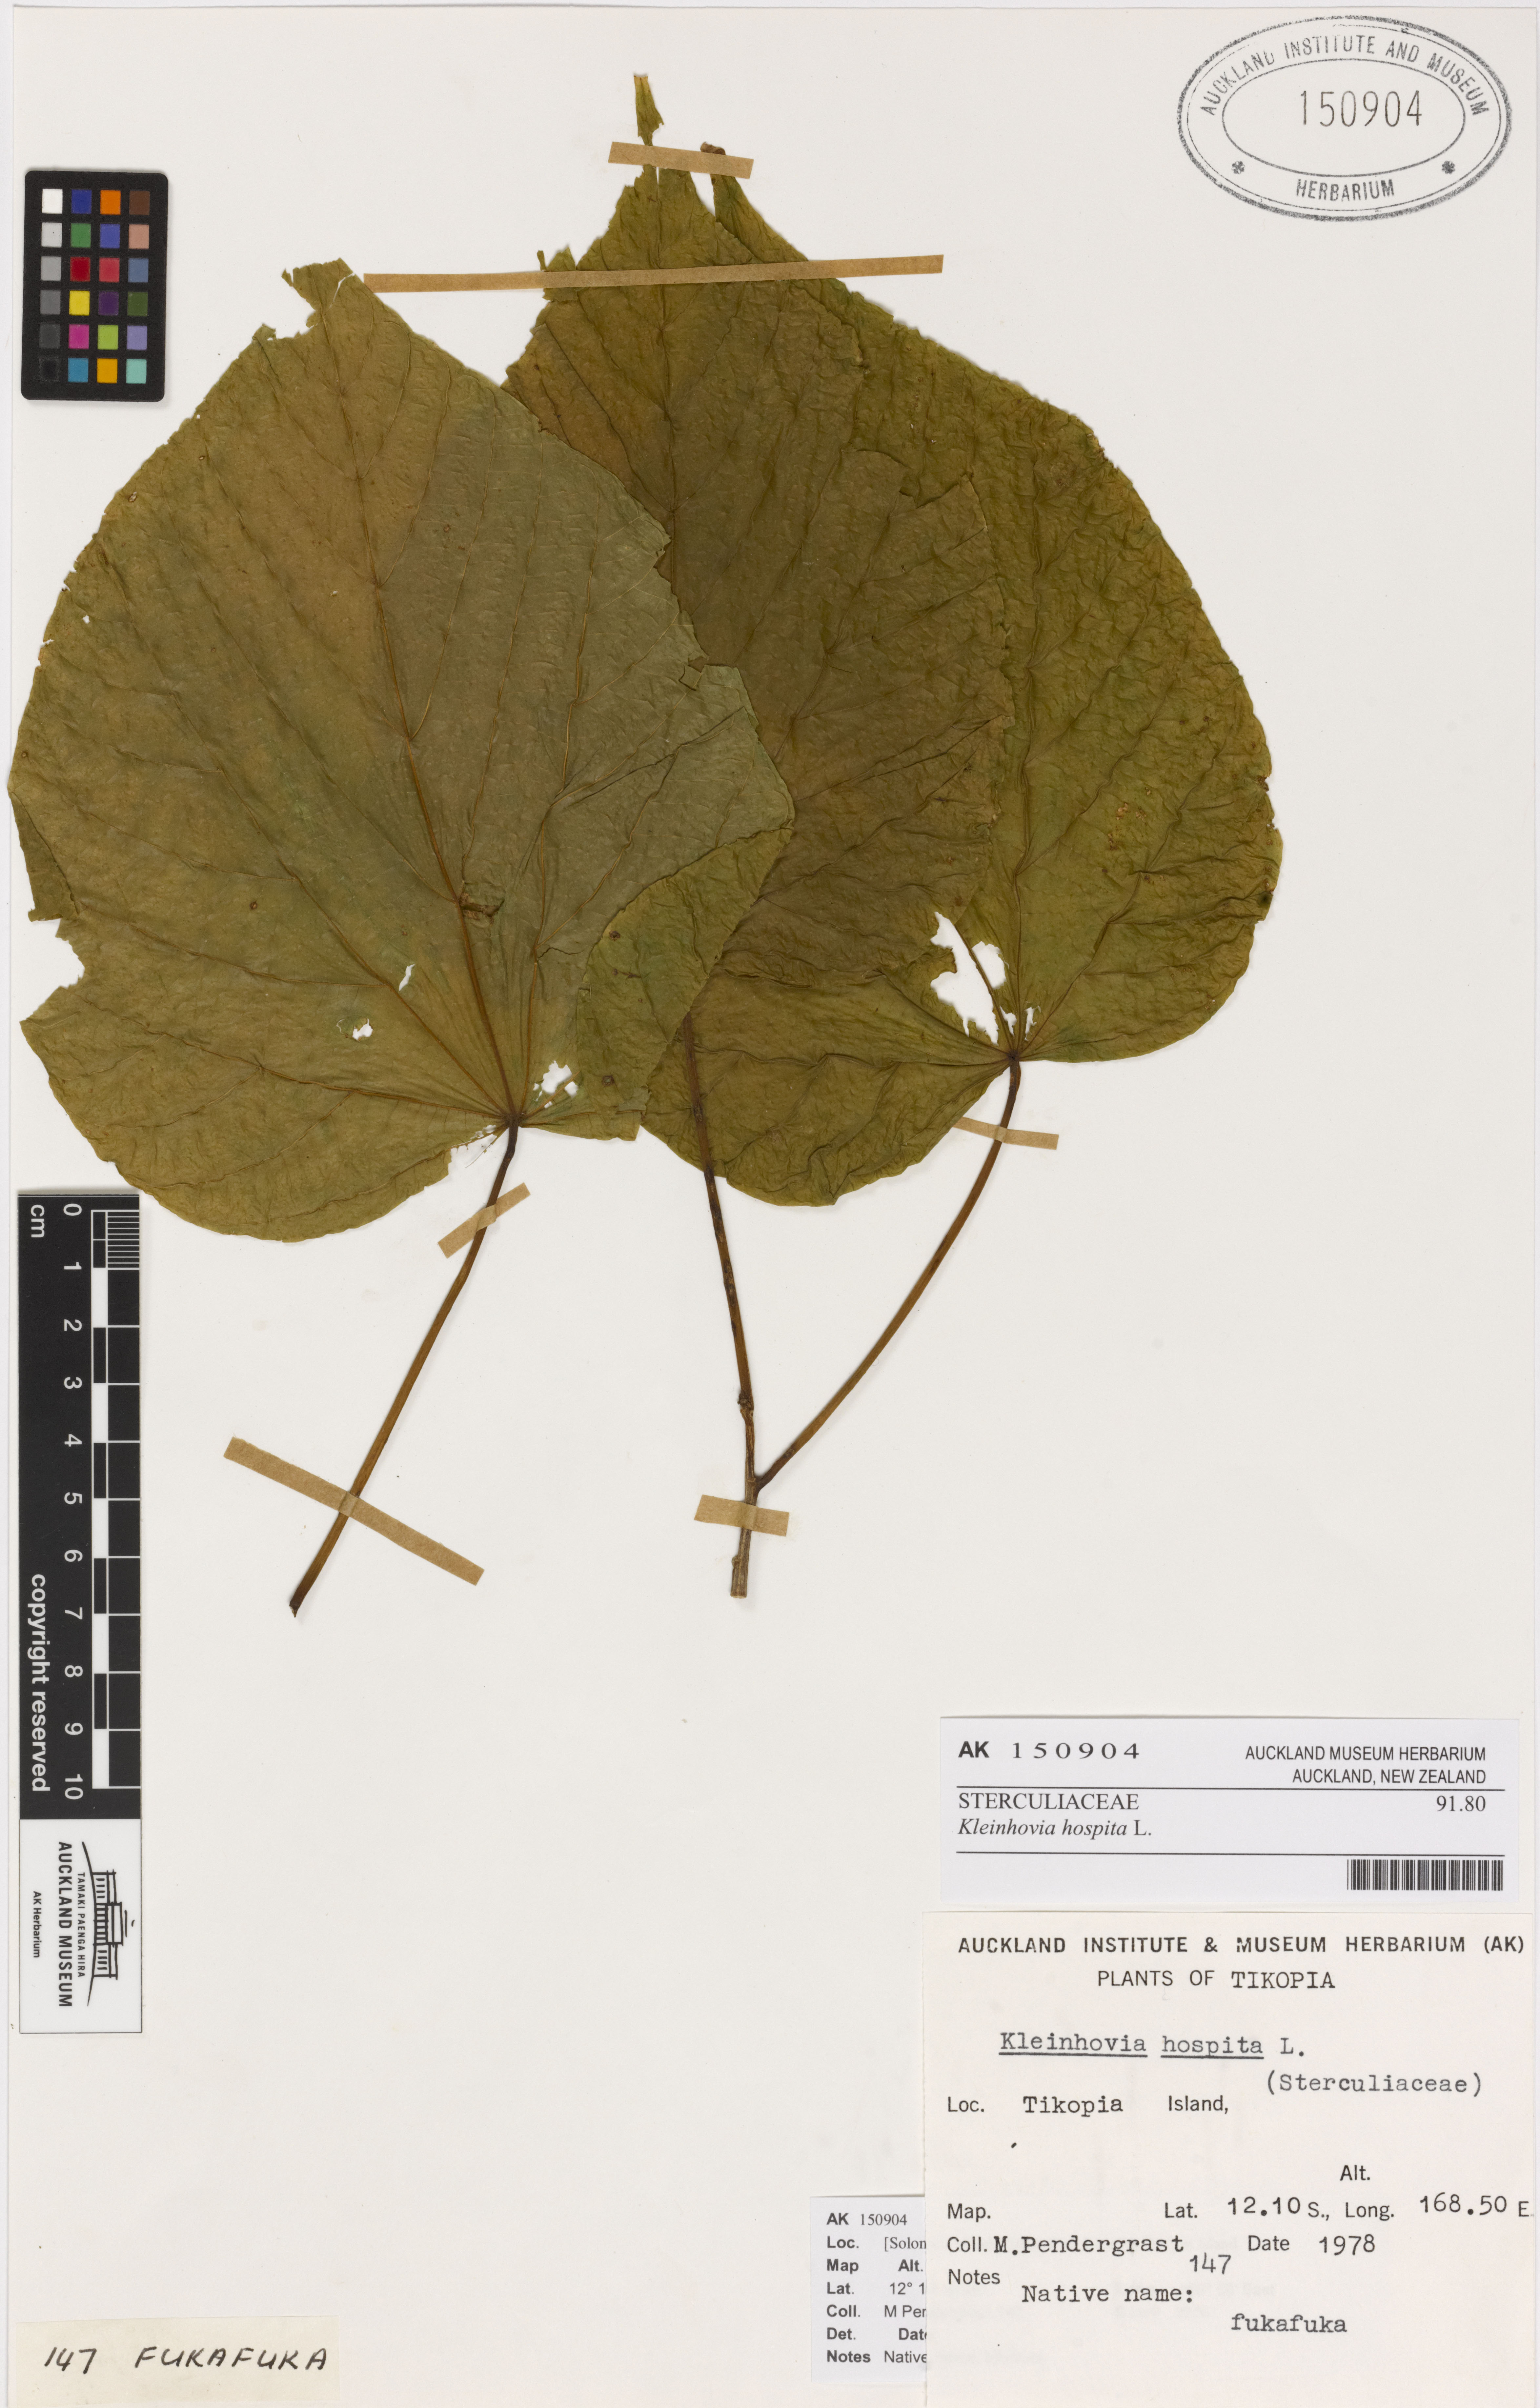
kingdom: Plantae
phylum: Tracheophyta
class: Magnoliopsida
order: Malvales
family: Malvaceae
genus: Kleinhovia
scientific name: Kleinhovia hospita
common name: Guest-tree
